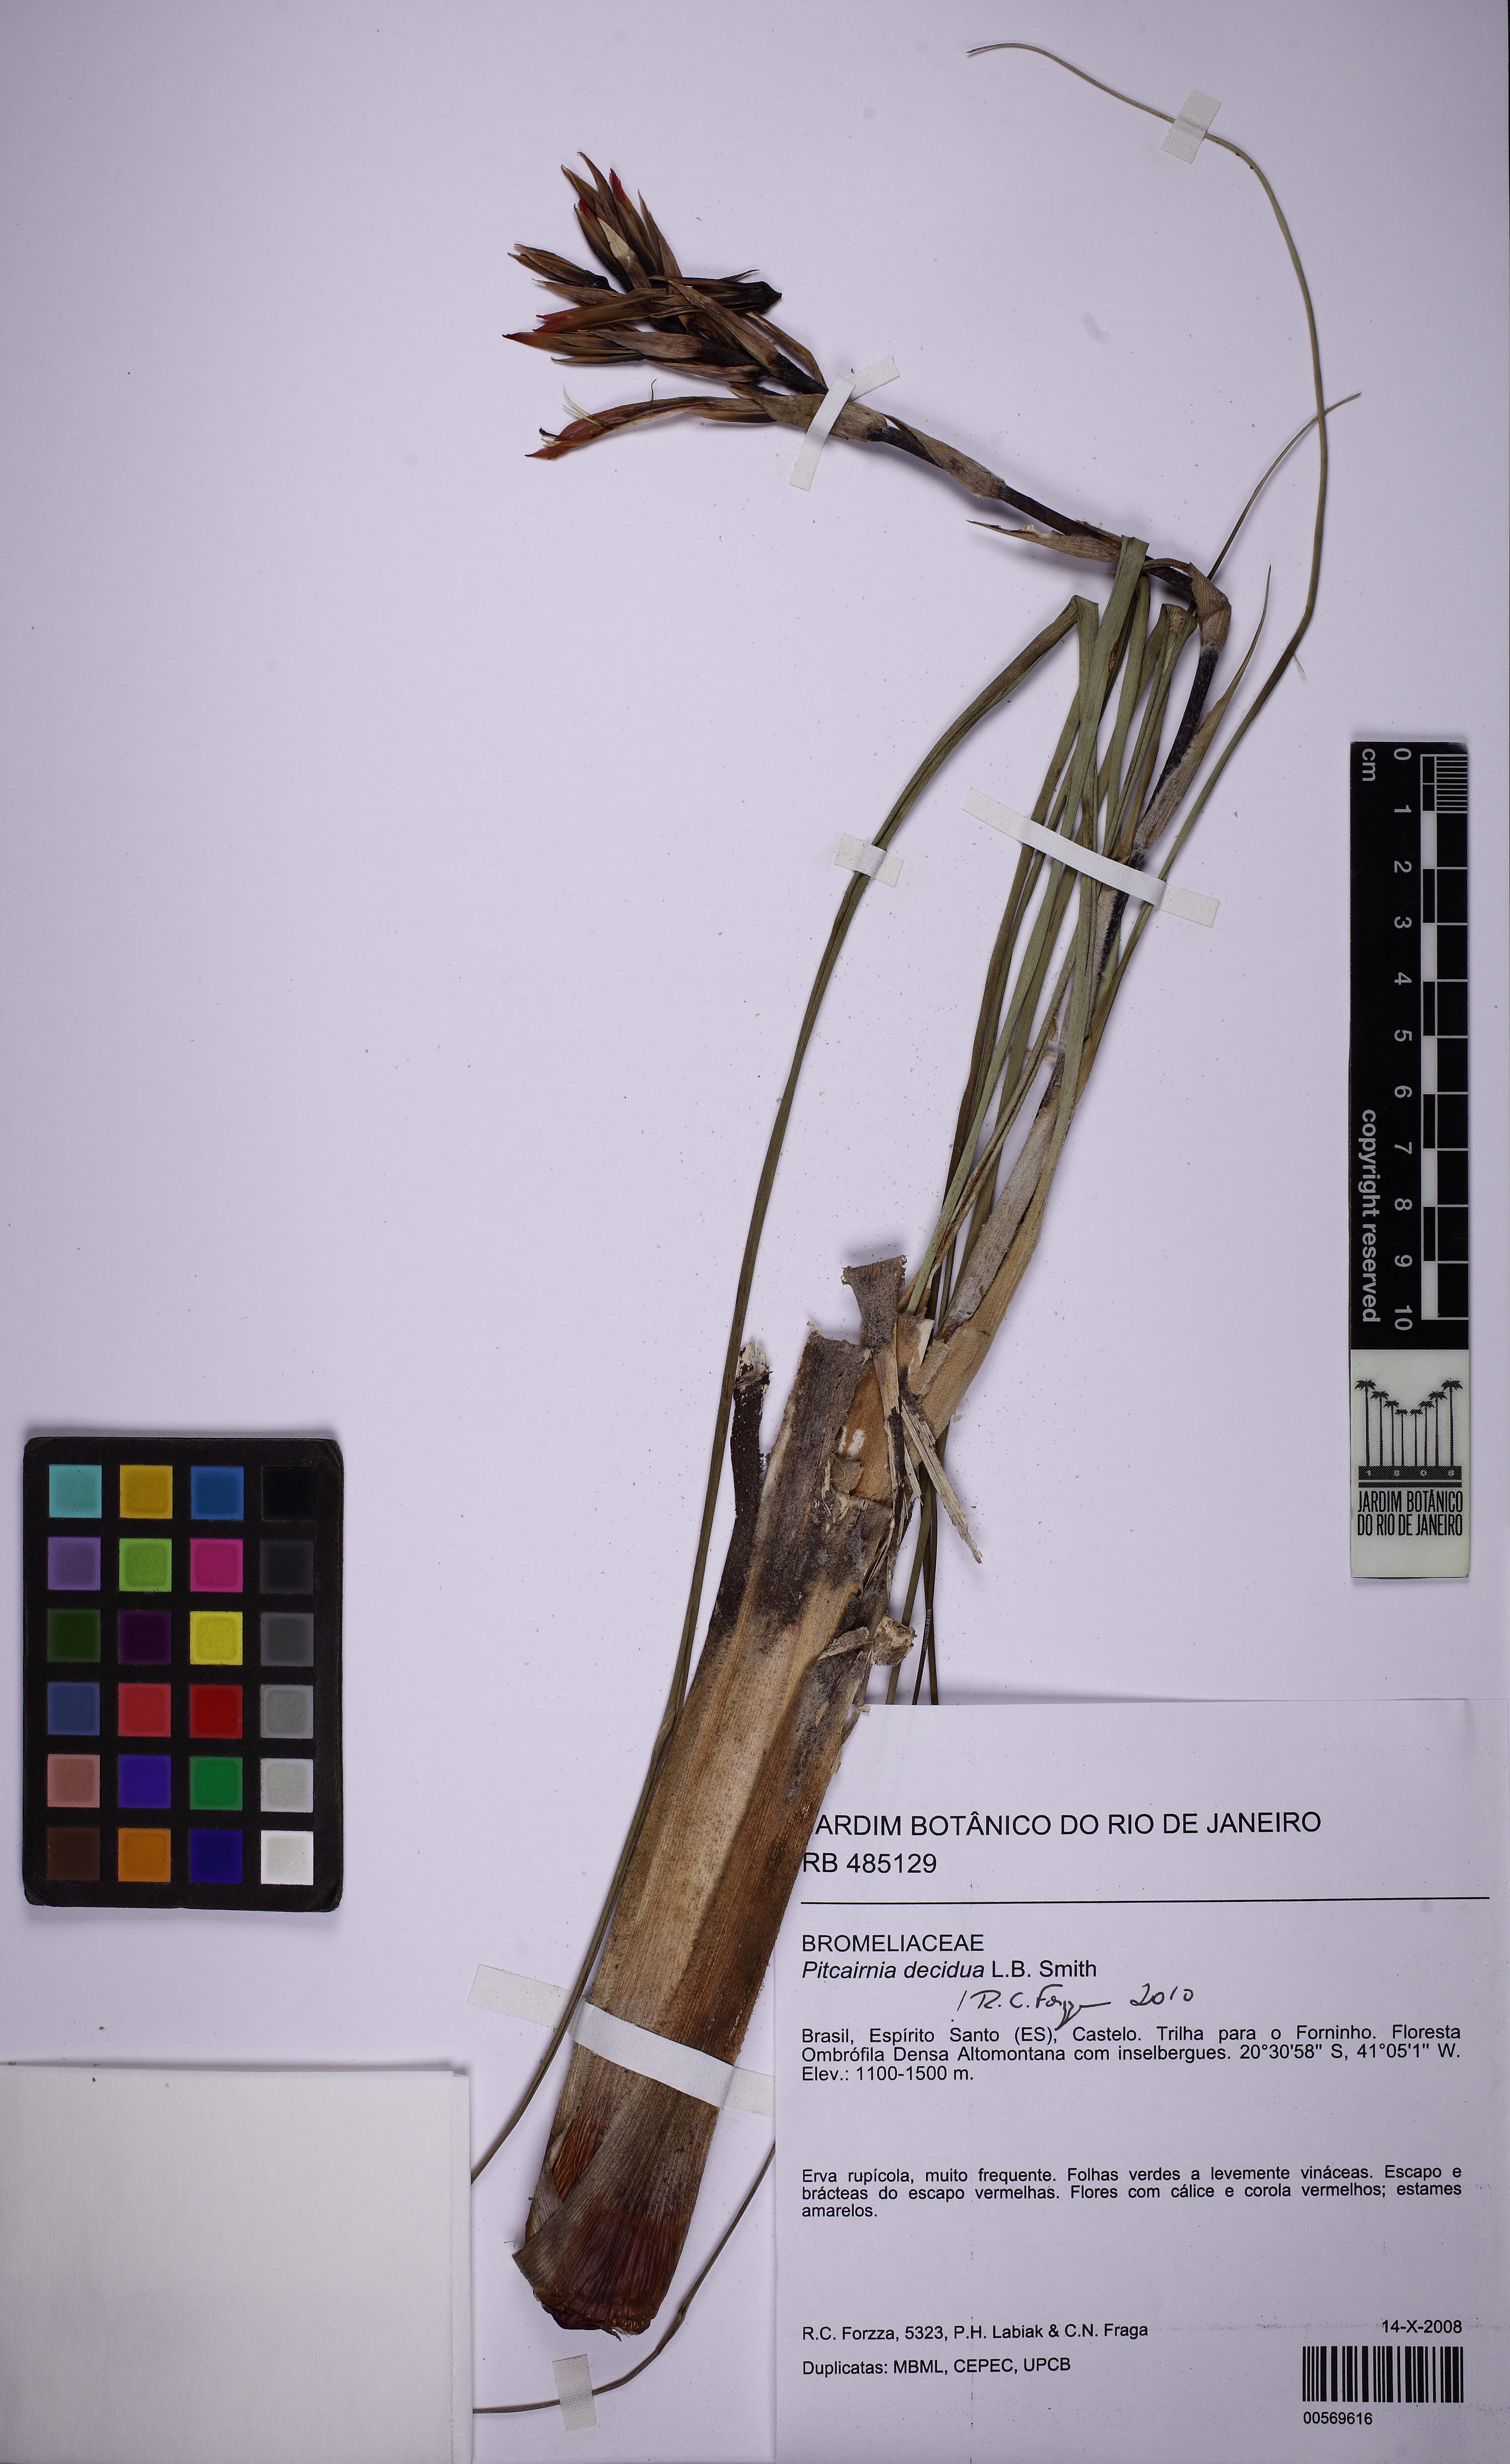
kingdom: Plantae
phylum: Tracheophyta
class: Liliopsida
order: Poales
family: Bromeliaceae
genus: Pitcairnia
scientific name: Pitcairnia decidua
